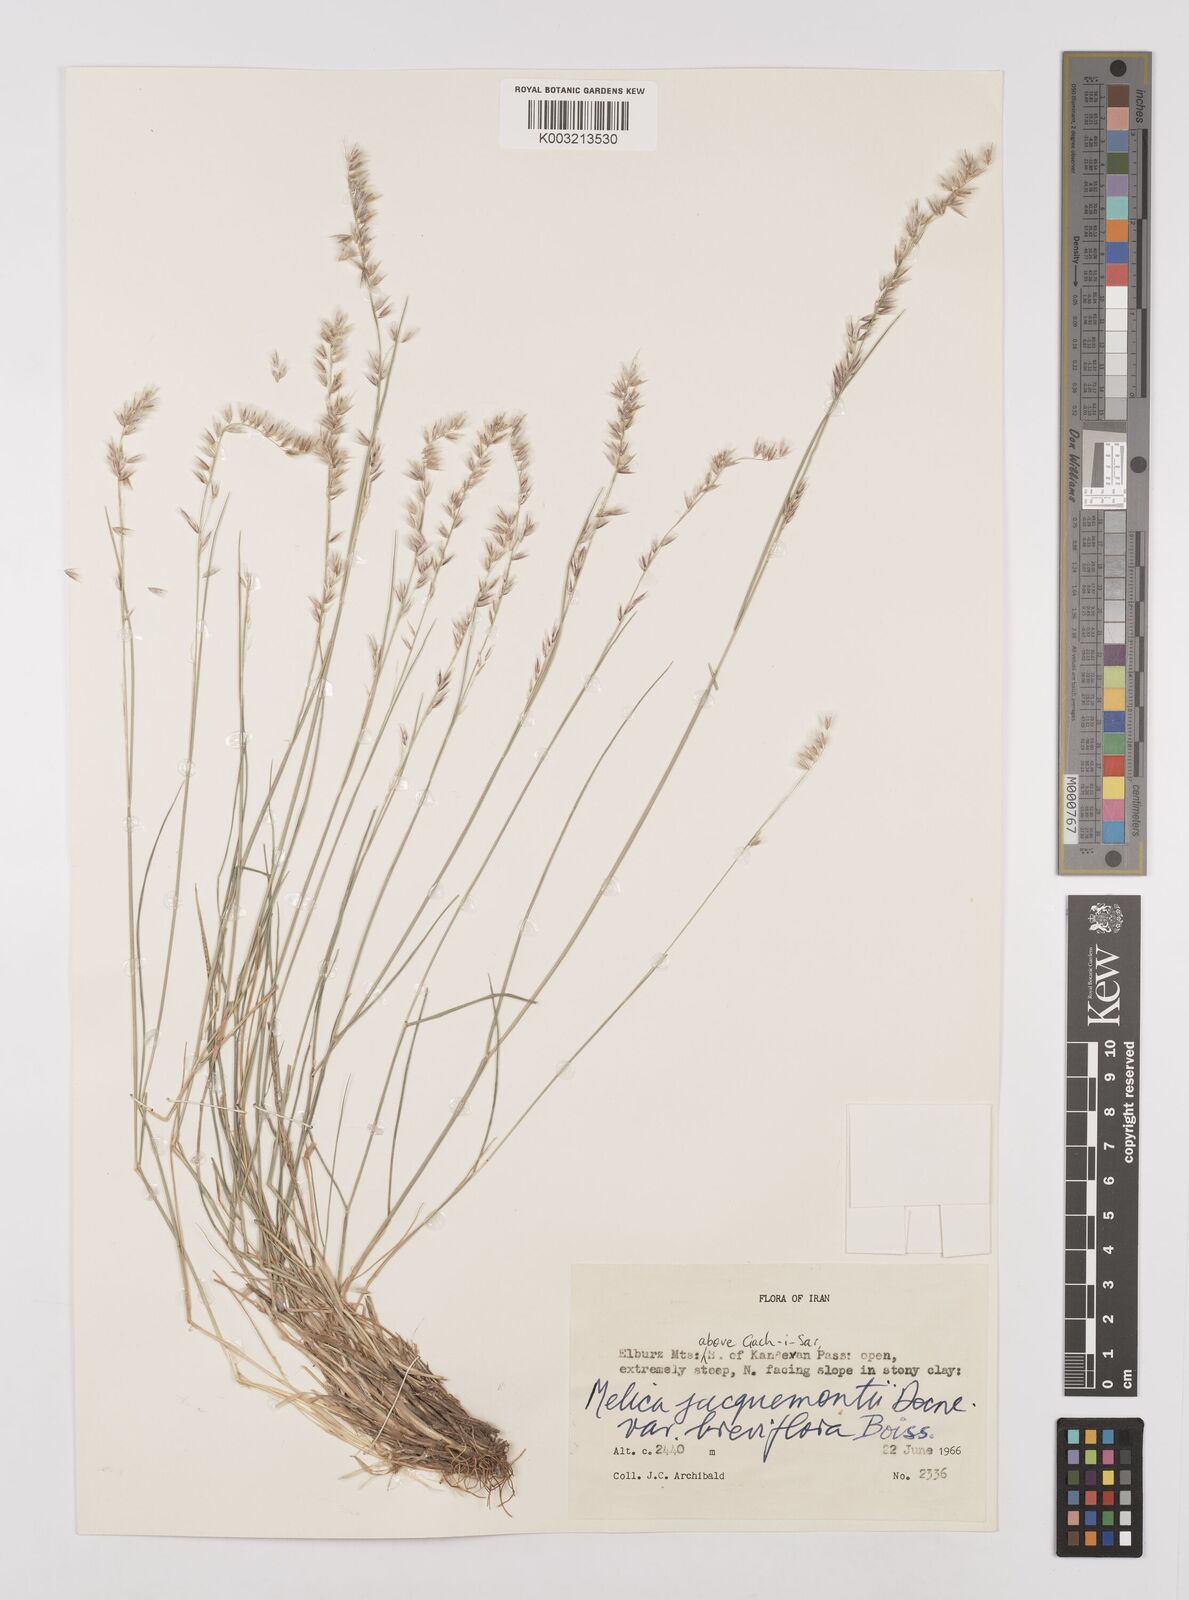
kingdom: Plantae
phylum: Tracheophyta
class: Liliopsida
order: Poales
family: Poaceae
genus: Melica
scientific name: Melica persica
